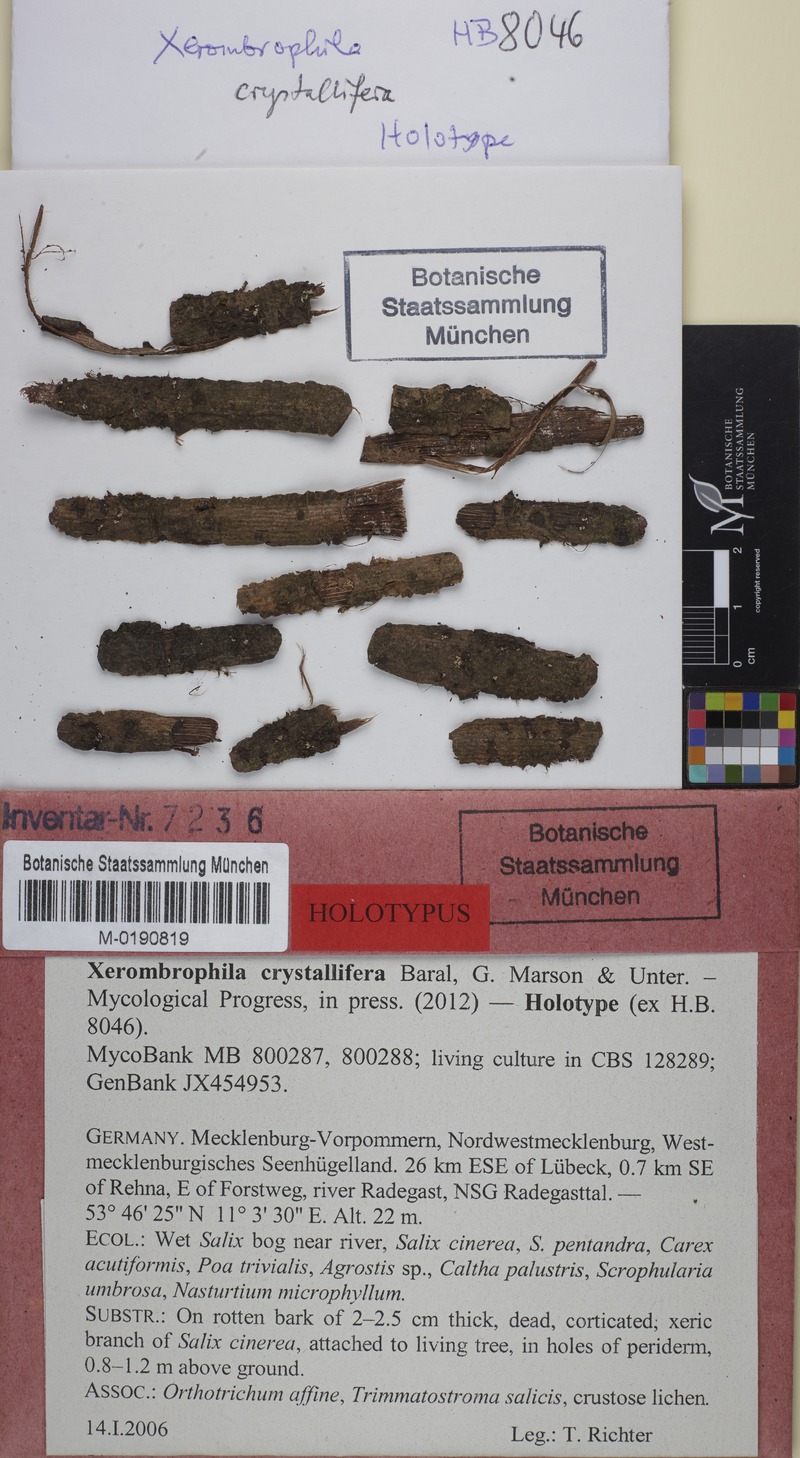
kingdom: Fungi
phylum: Ascomycota
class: Leotiomycetes
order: Helotiales
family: Gelatinodiscaceae
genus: Xerombrophila
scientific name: Xerombrophila crystallifera
